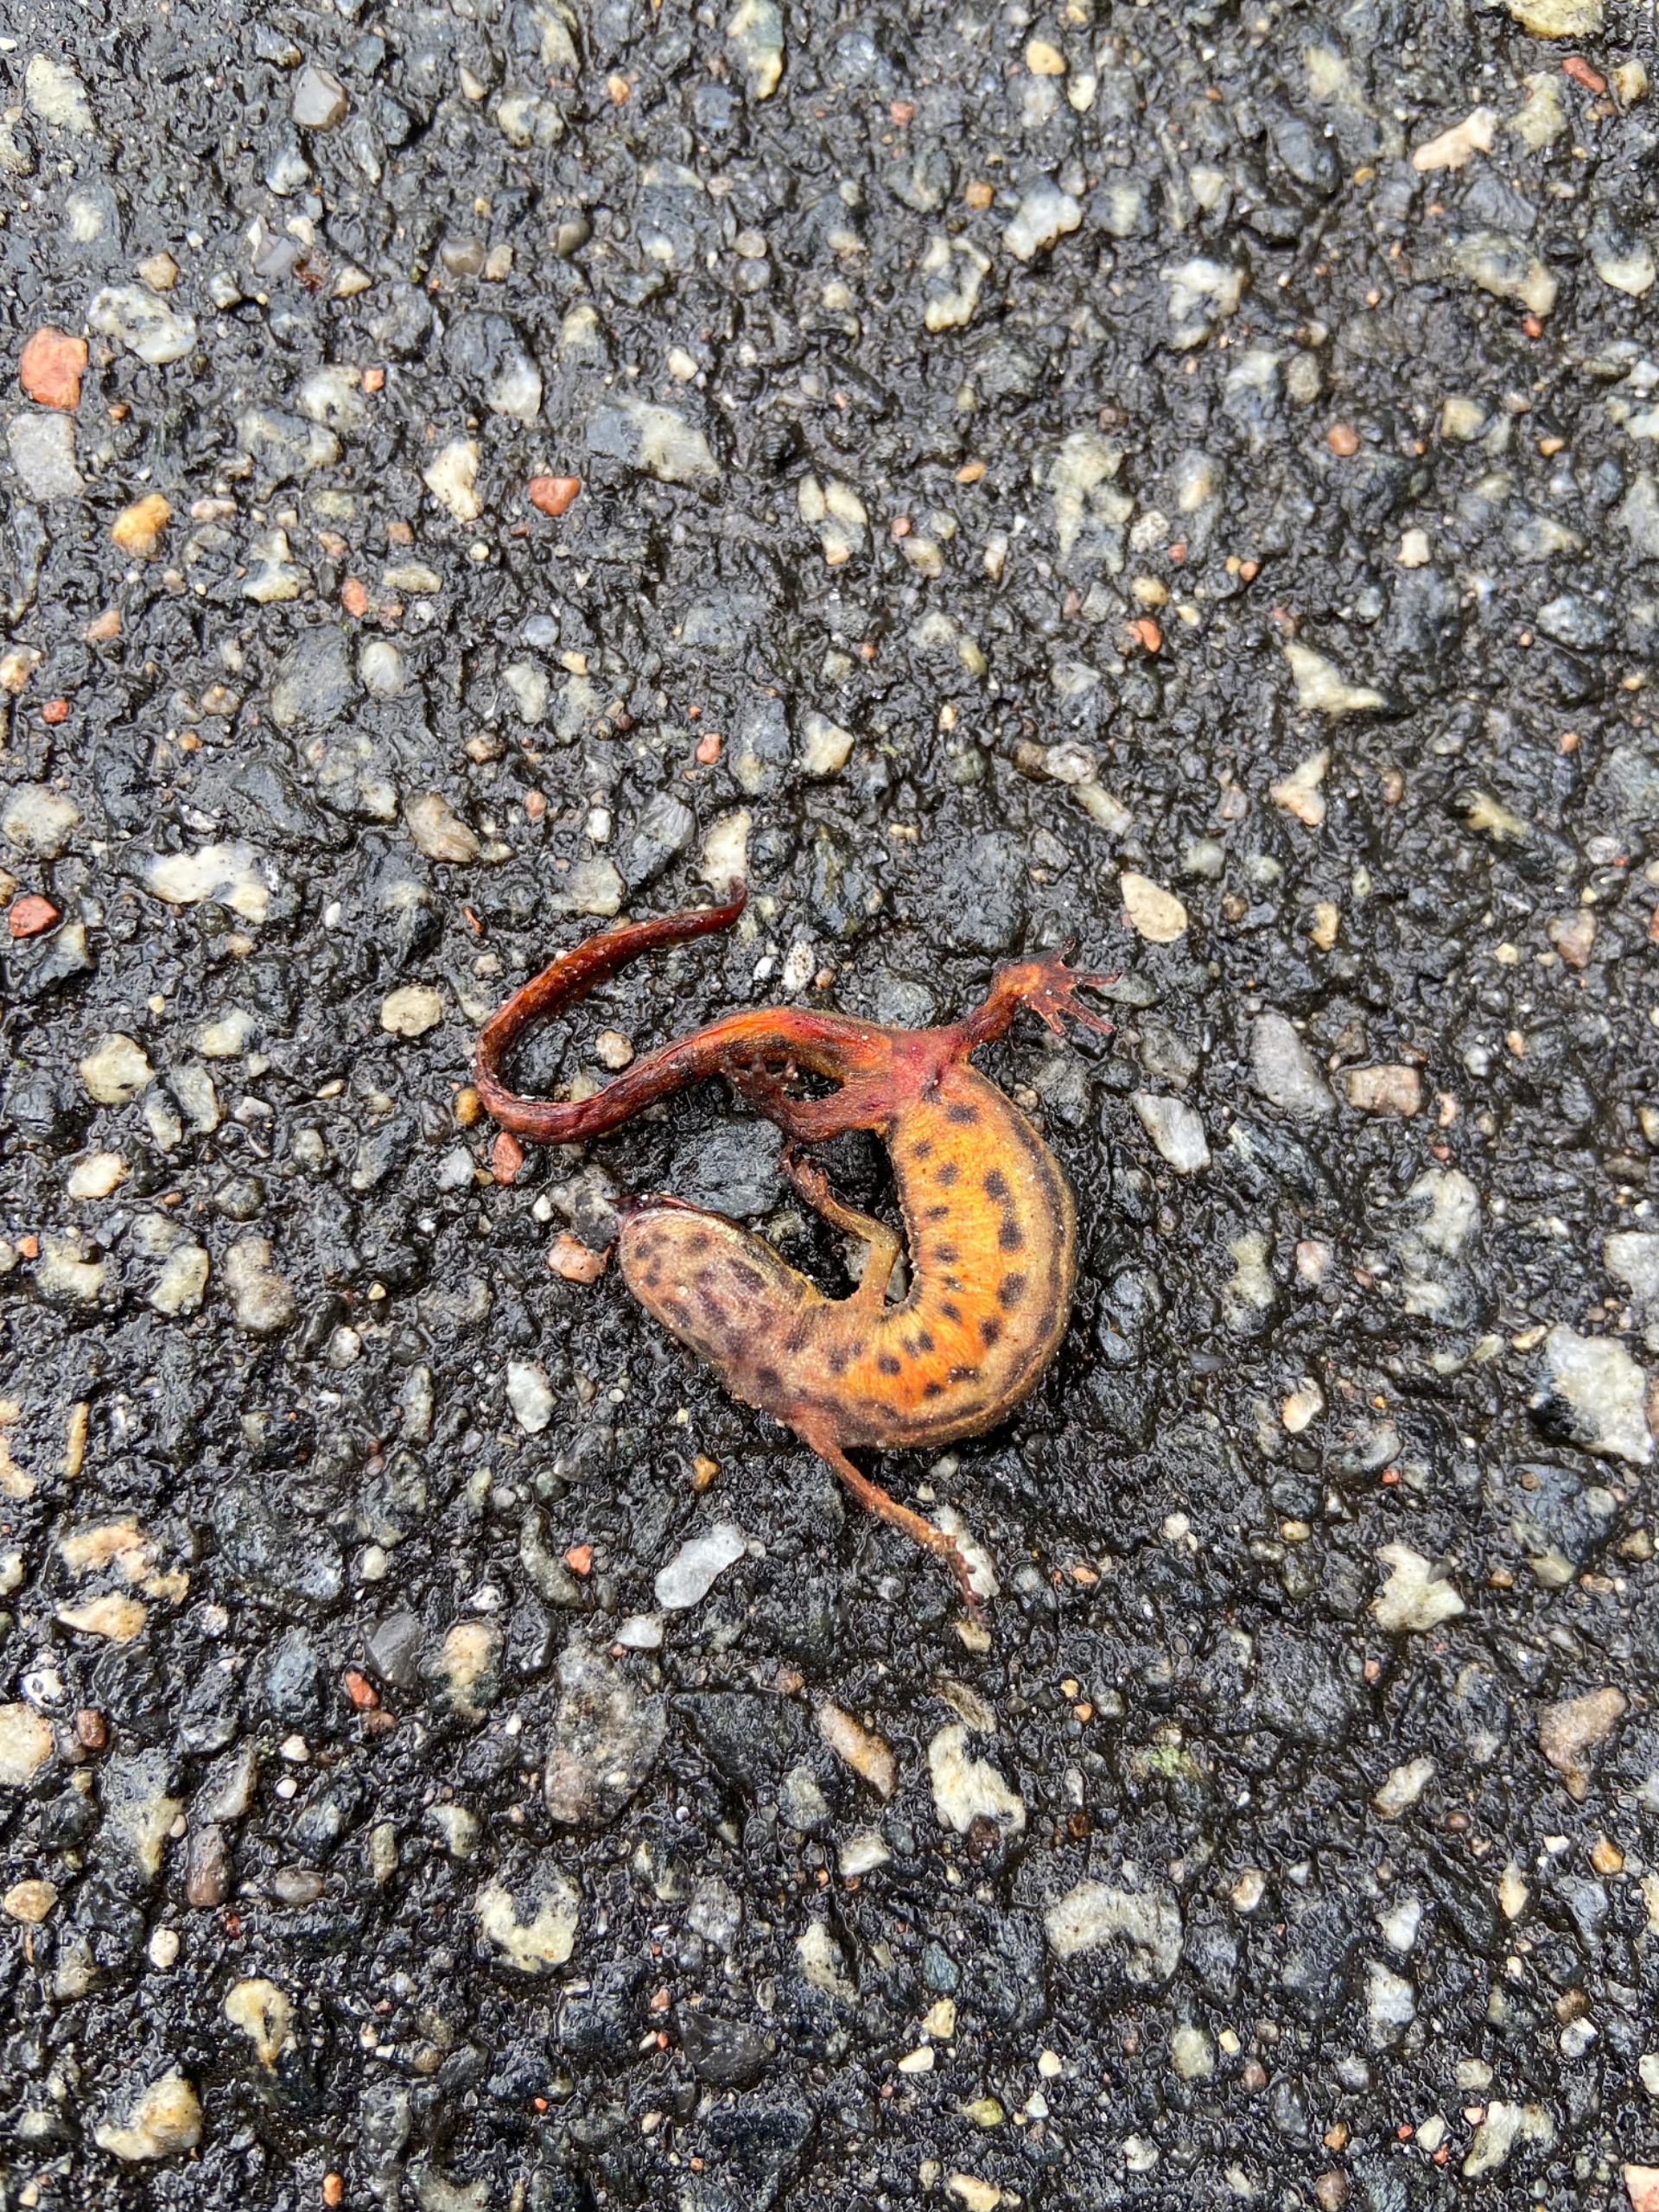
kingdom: Animalia
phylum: Chordata
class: Amphibia
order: Caudata
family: Salamandridae
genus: Lissotriton
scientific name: Lissotriton vulgaris
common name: Lille vandsalamander
